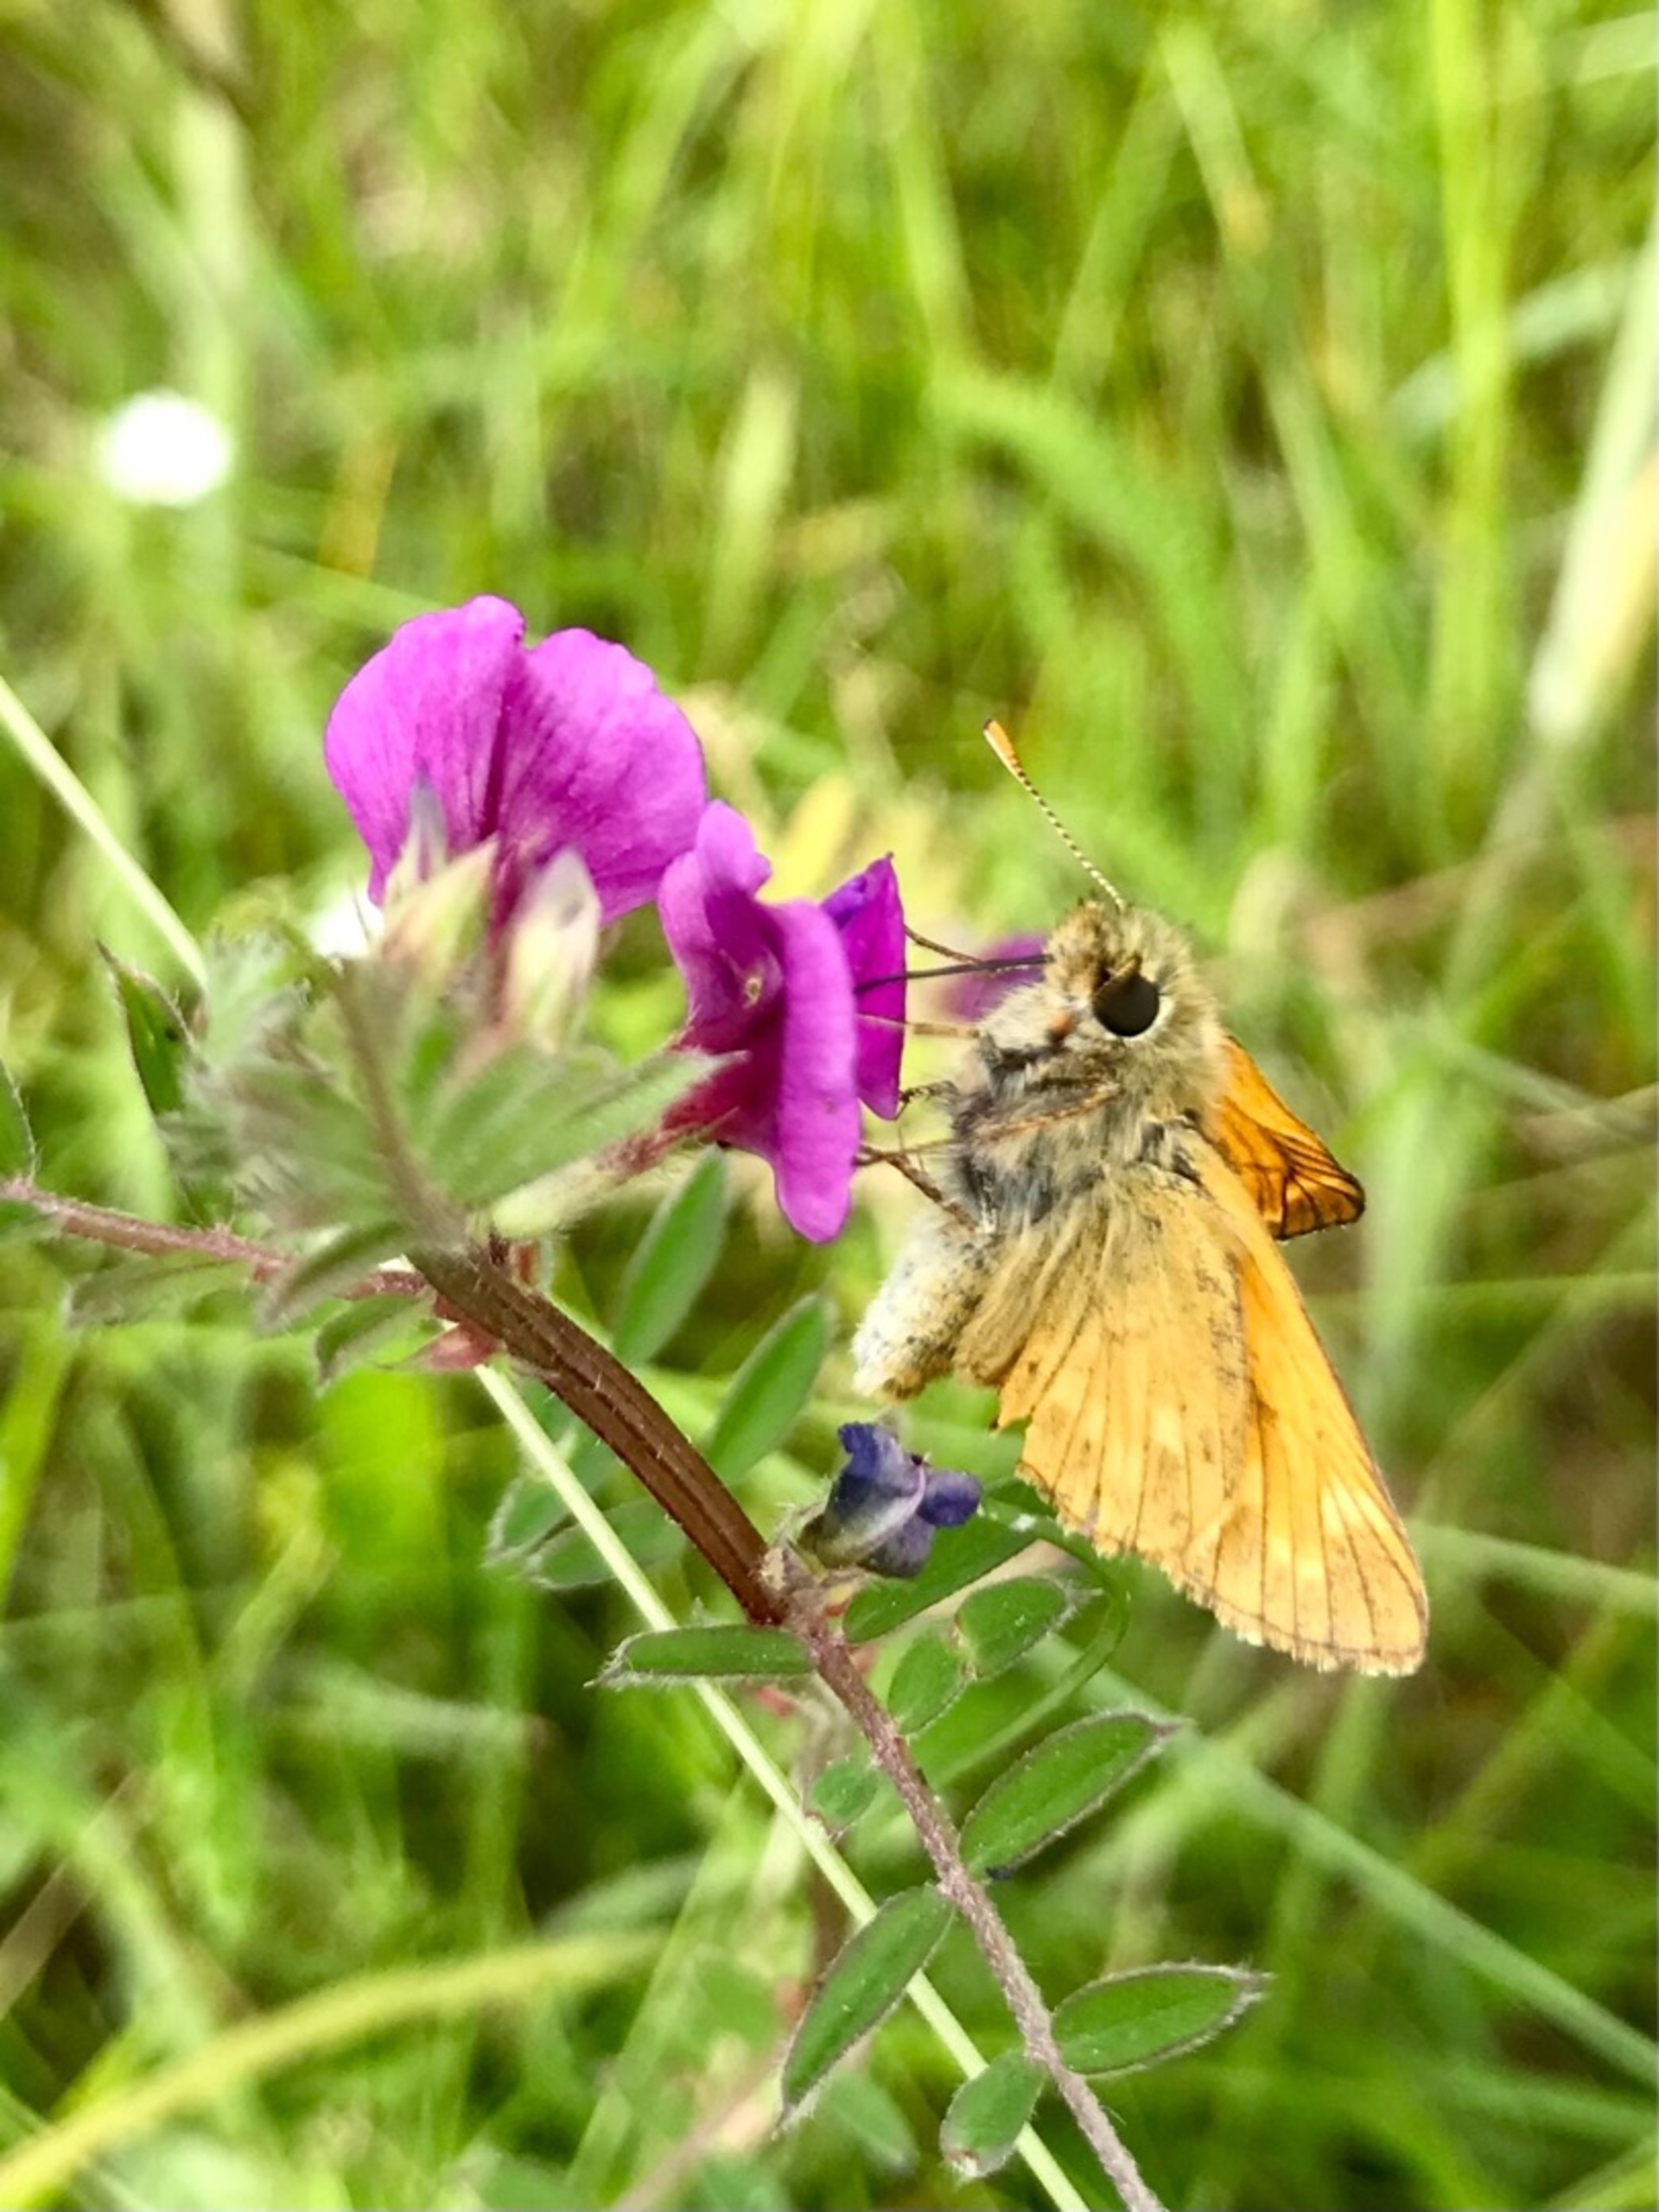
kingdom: Animalia
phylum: Arthropoda
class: Insecta
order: Lepidoptera
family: Hesperiidae
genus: Ochlodes
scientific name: Ochlodes venata
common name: Stor bredpande
